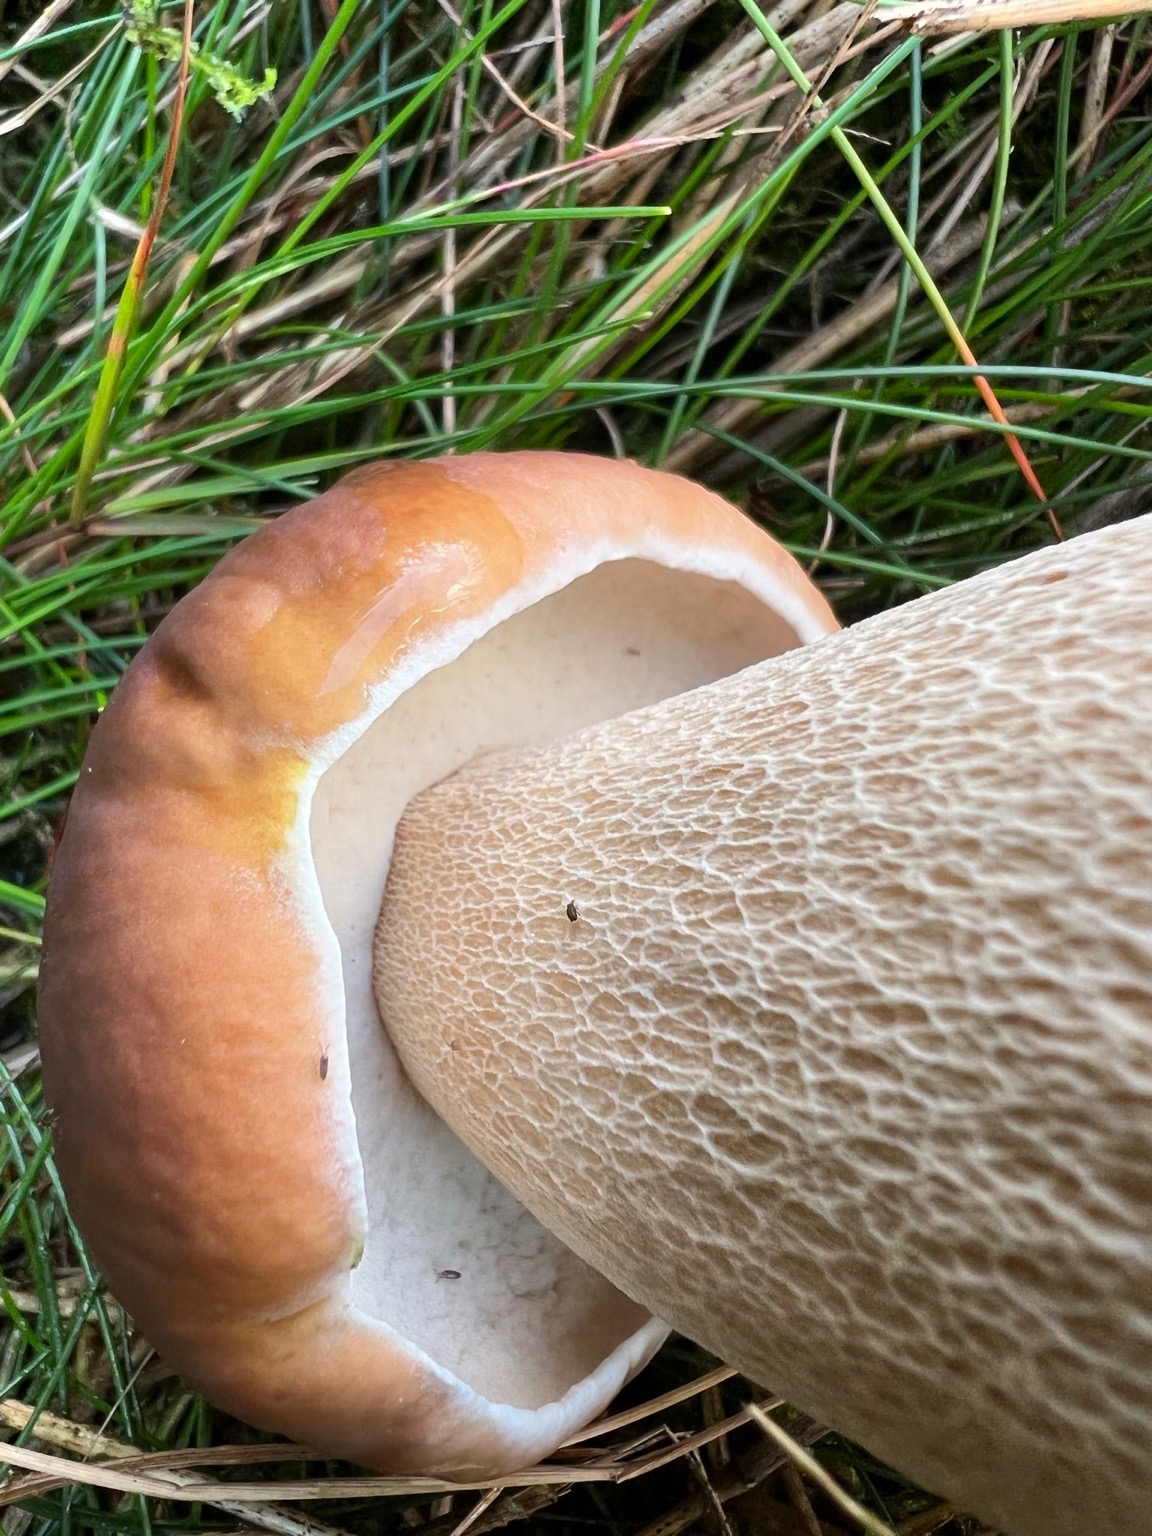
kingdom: Fungi
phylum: Basidiomycota
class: Agaricomycetes
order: Boletales
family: Boletaceae
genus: Boletus
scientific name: Boletus edulis
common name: Spiselig rørhat/karl johan
